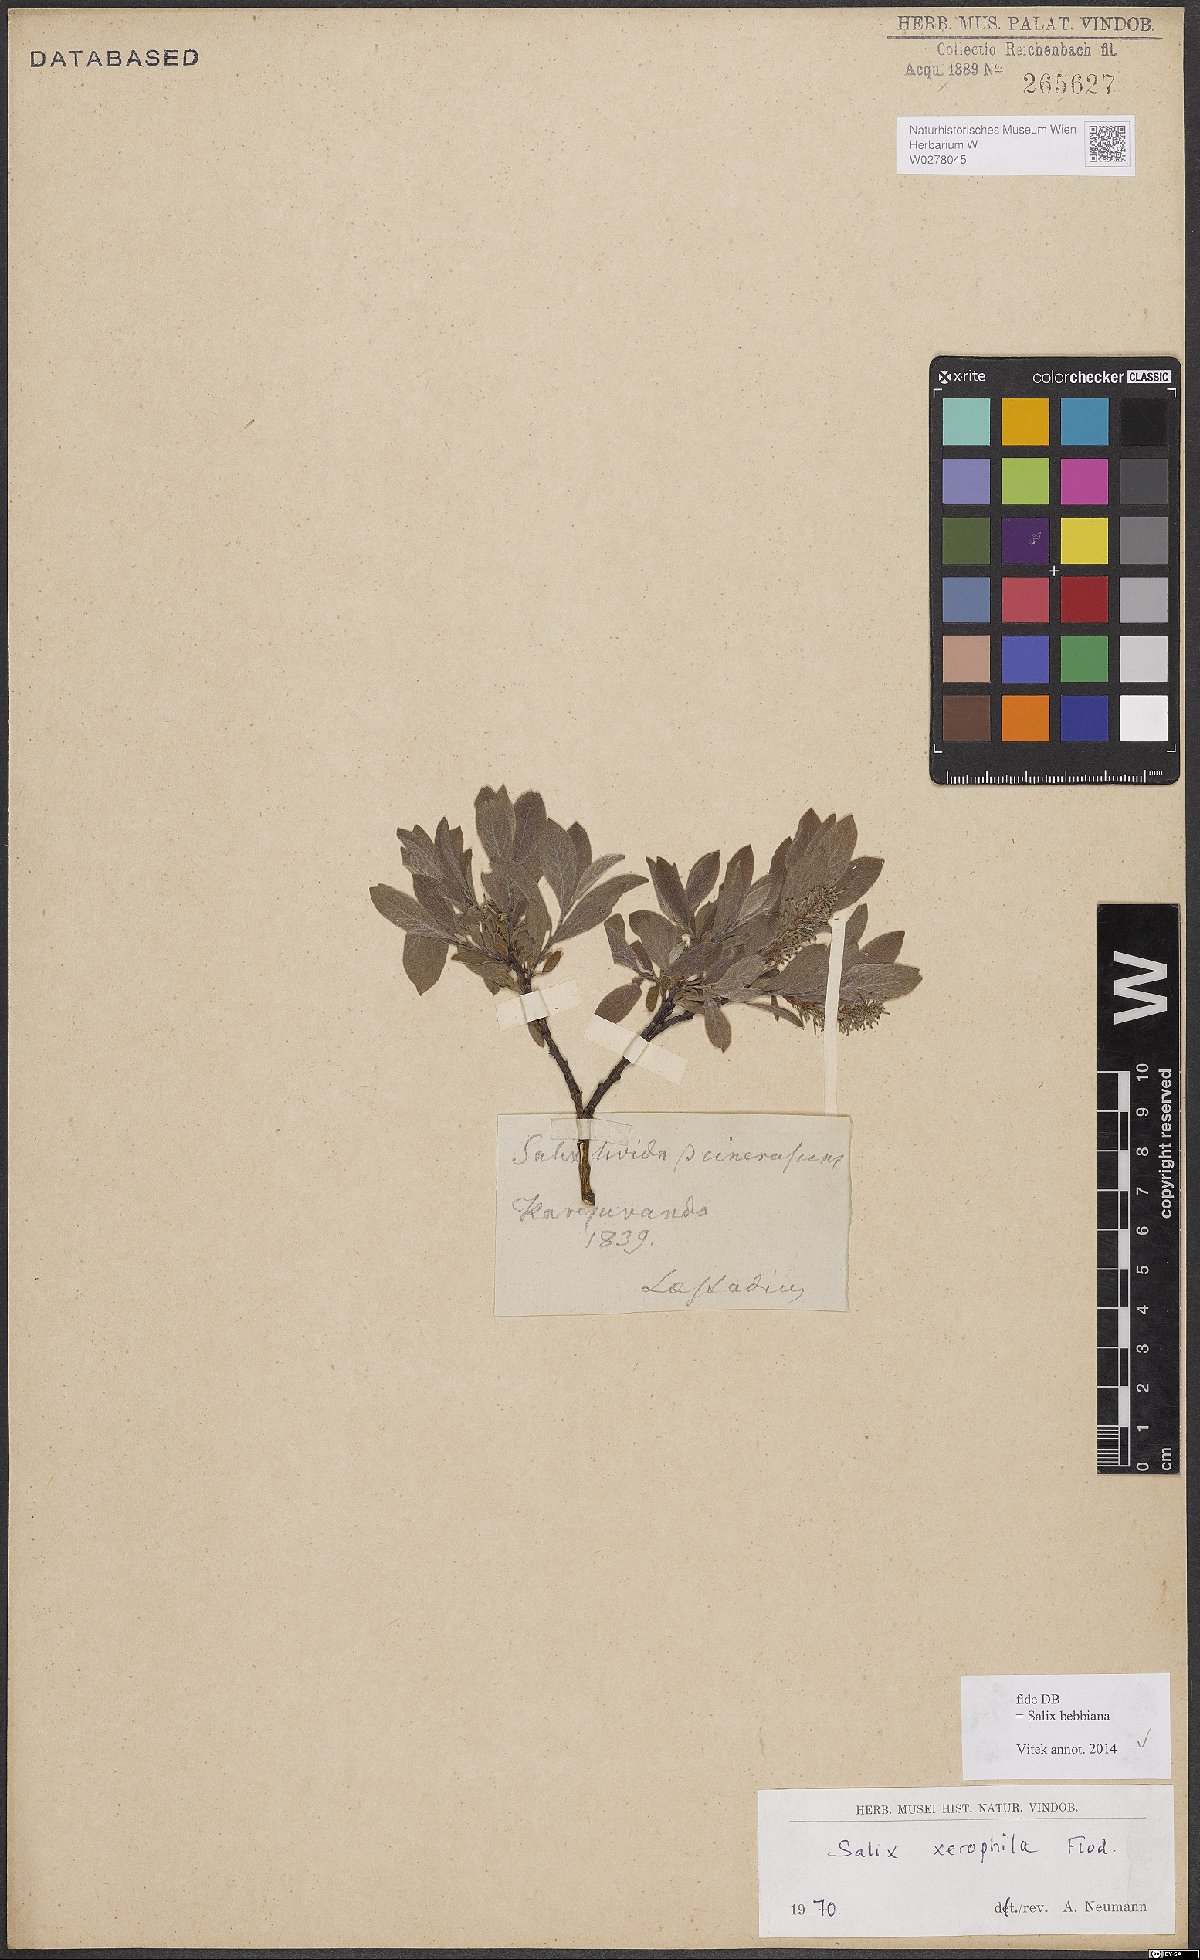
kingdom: Plantae
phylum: Tracheophyta
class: Magnoliopsida
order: Malpighiales
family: Salicaceae
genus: Salix
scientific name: Salix bebbiana
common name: Bebb's willow
